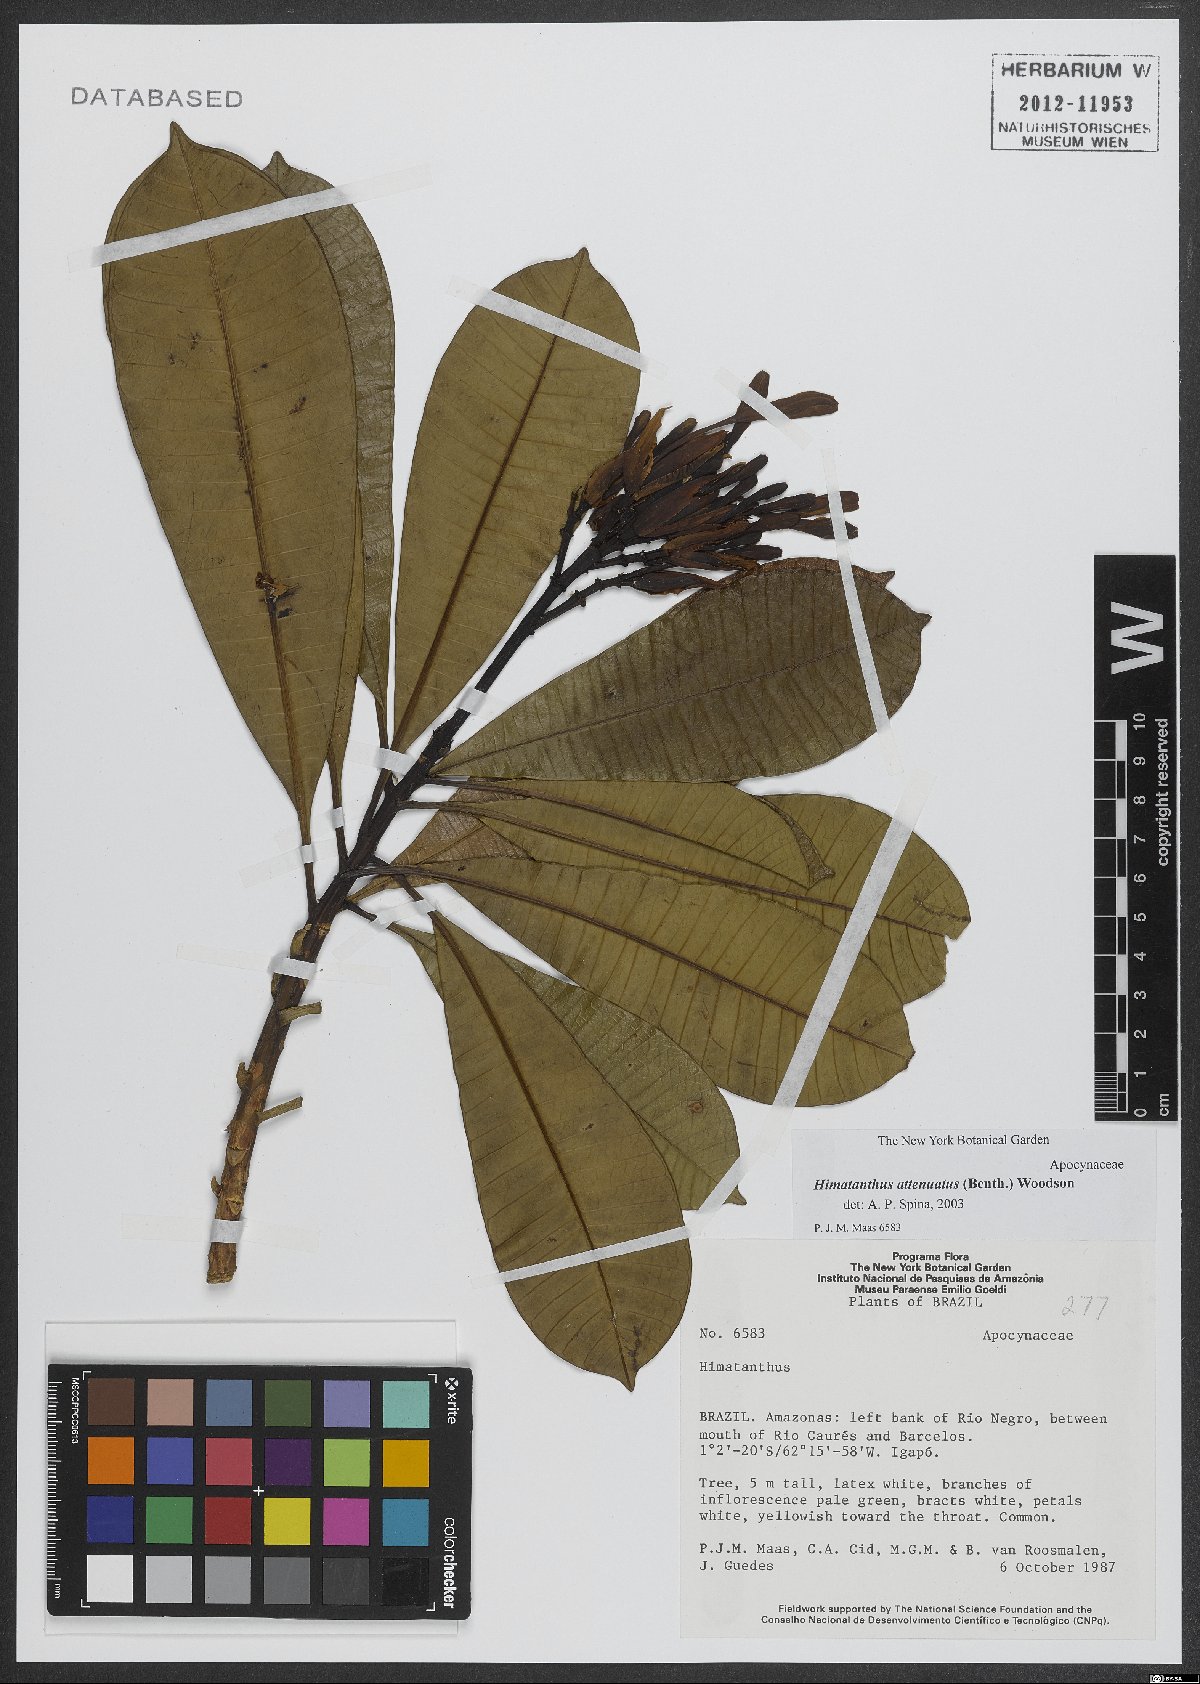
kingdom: Plantae
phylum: Tracheophyta
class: Magnoliopsida
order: Gentianales
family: Apocynaceae
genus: Himatanthus
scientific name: Himatanthus attenuatus
